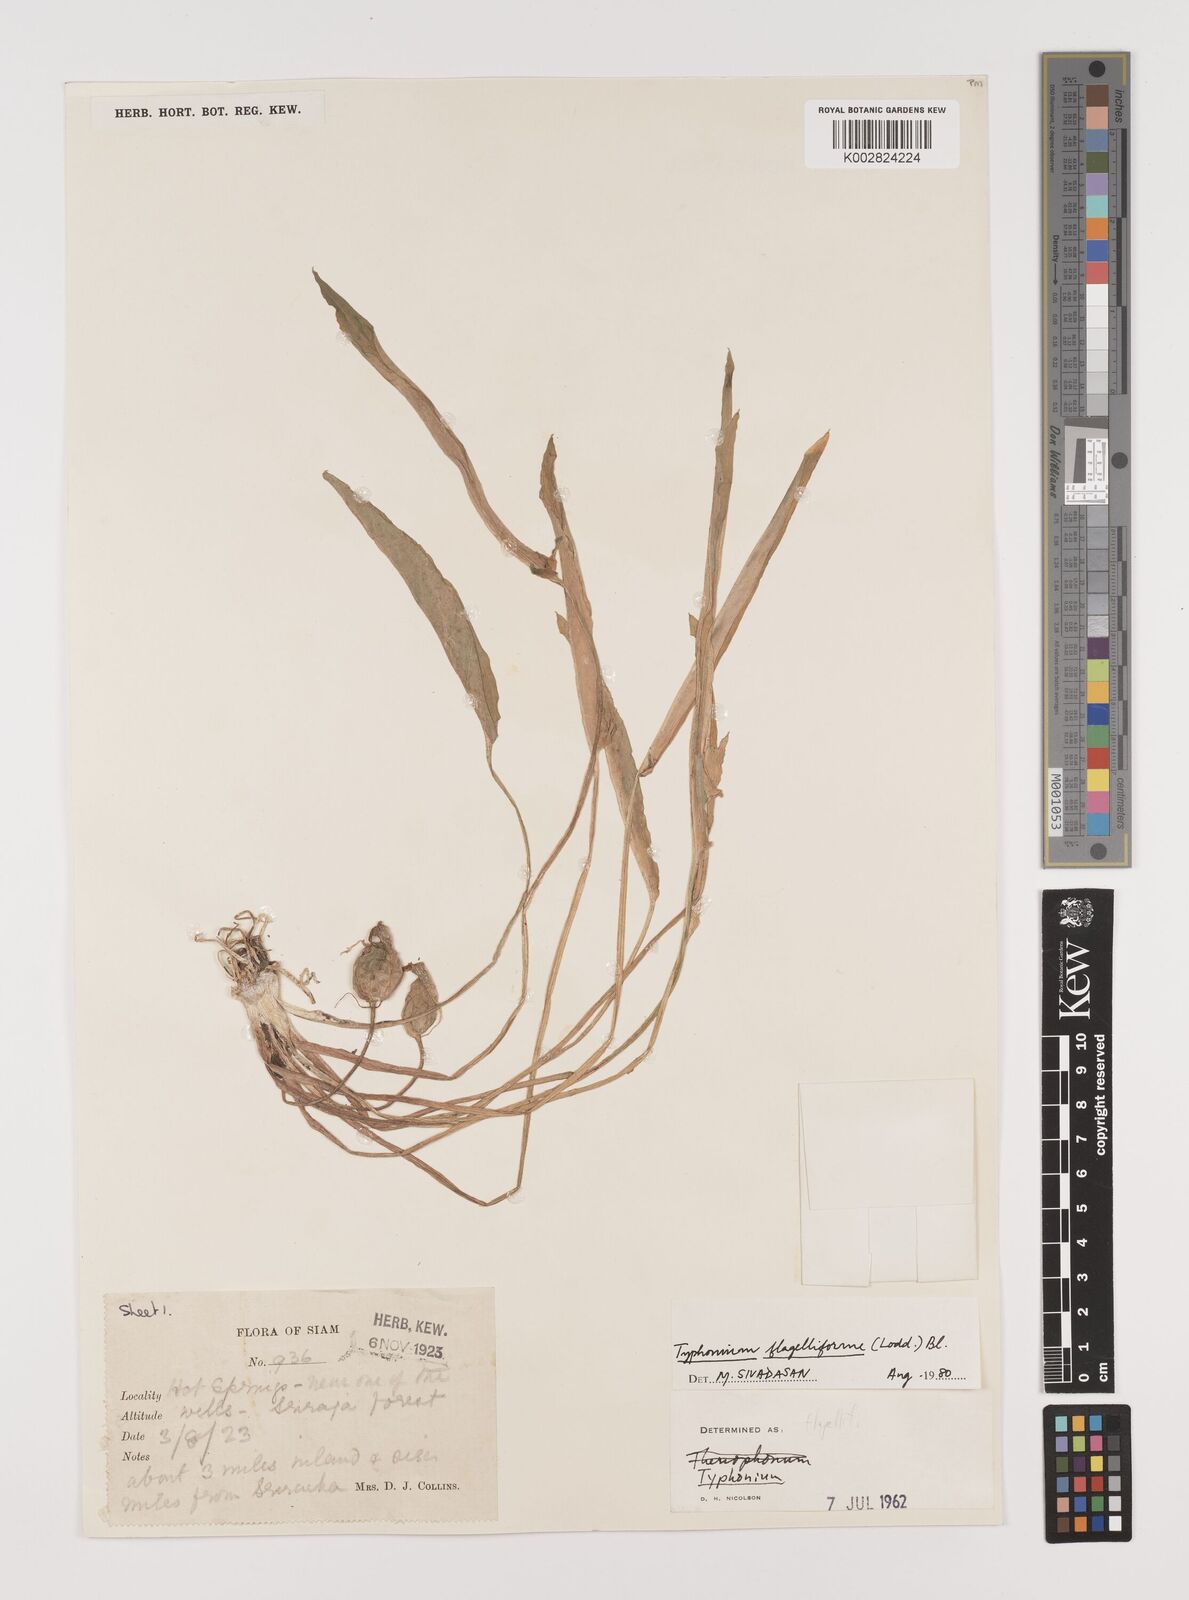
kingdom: Plantae
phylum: Tracheophyta
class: Liliopsida
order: Alismatales
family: Araceae
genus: Typhonium
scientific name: Typhonium flagelliforme
